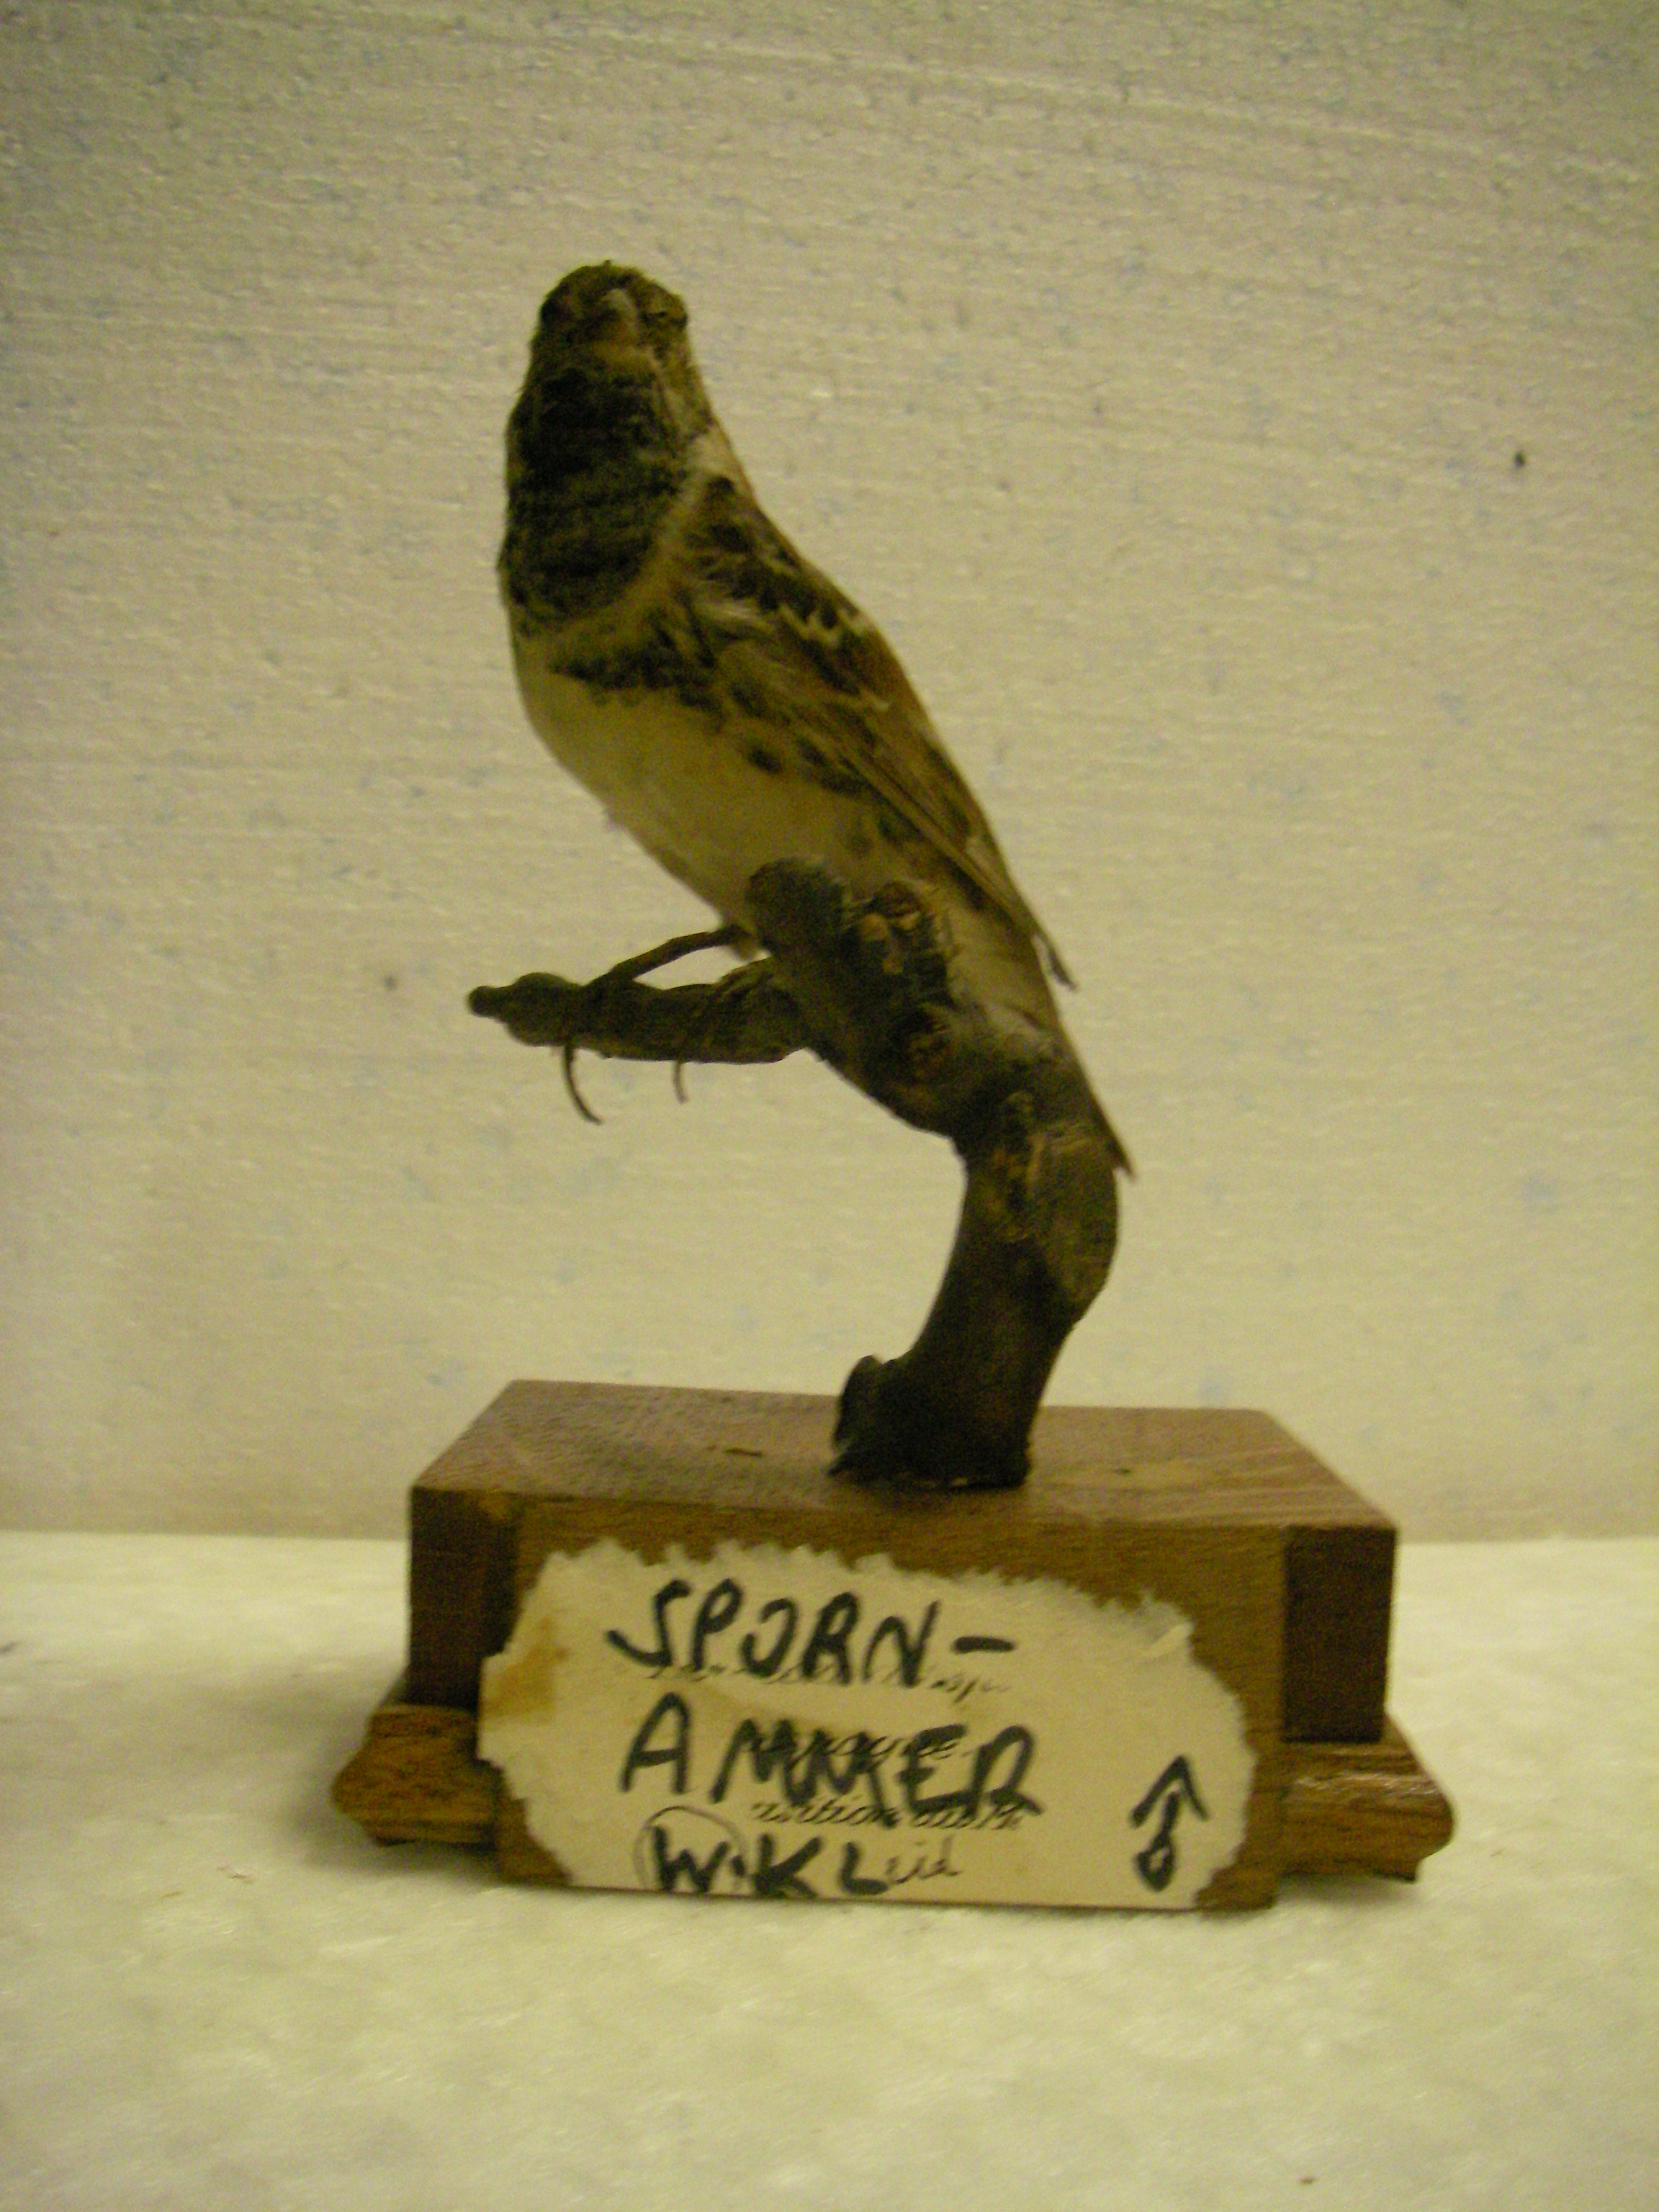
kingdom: Animalia
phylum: Chordata
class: Aves
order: Passeriformes
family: Calcariidae
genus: Calcarius
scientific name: Calcarius lapponicus
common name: Lapland longspur
